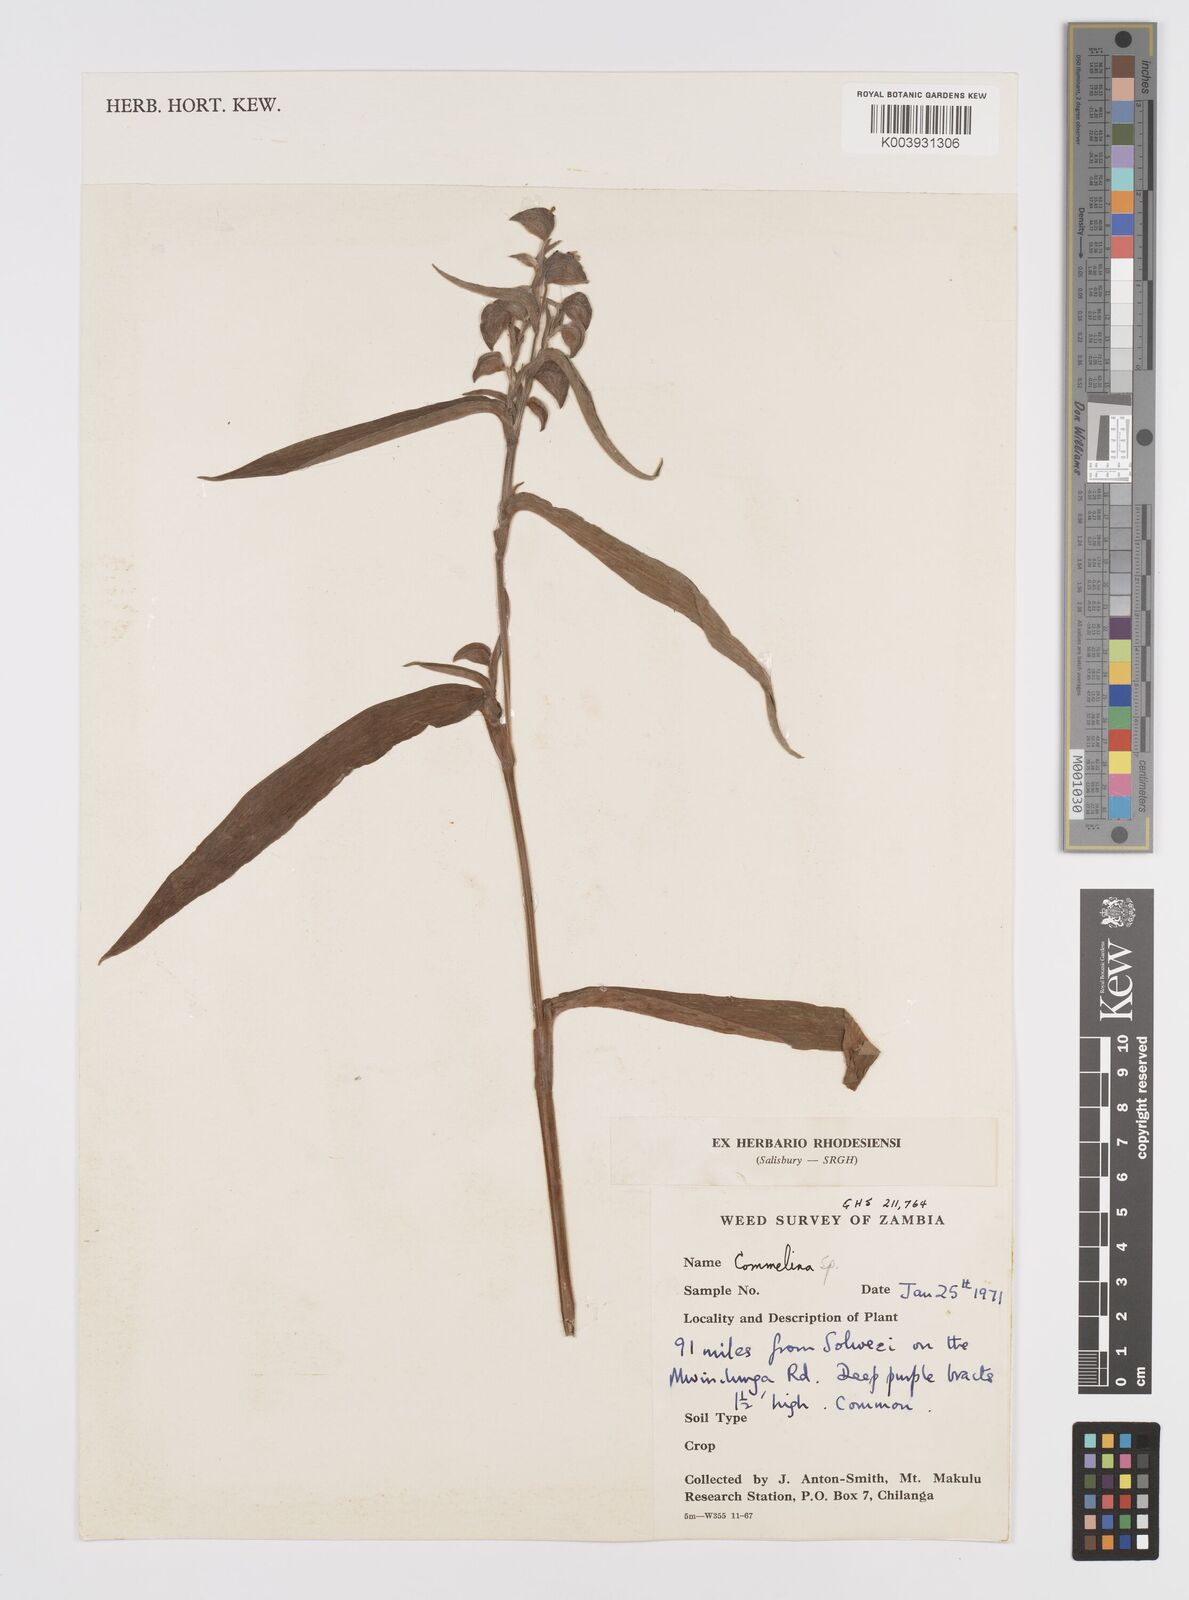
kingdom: Plantae
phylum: Tracheophyta
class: Liliopsida
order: Commelinales
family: Commelinaceae
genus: Commelina
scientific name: Commelina velutina
